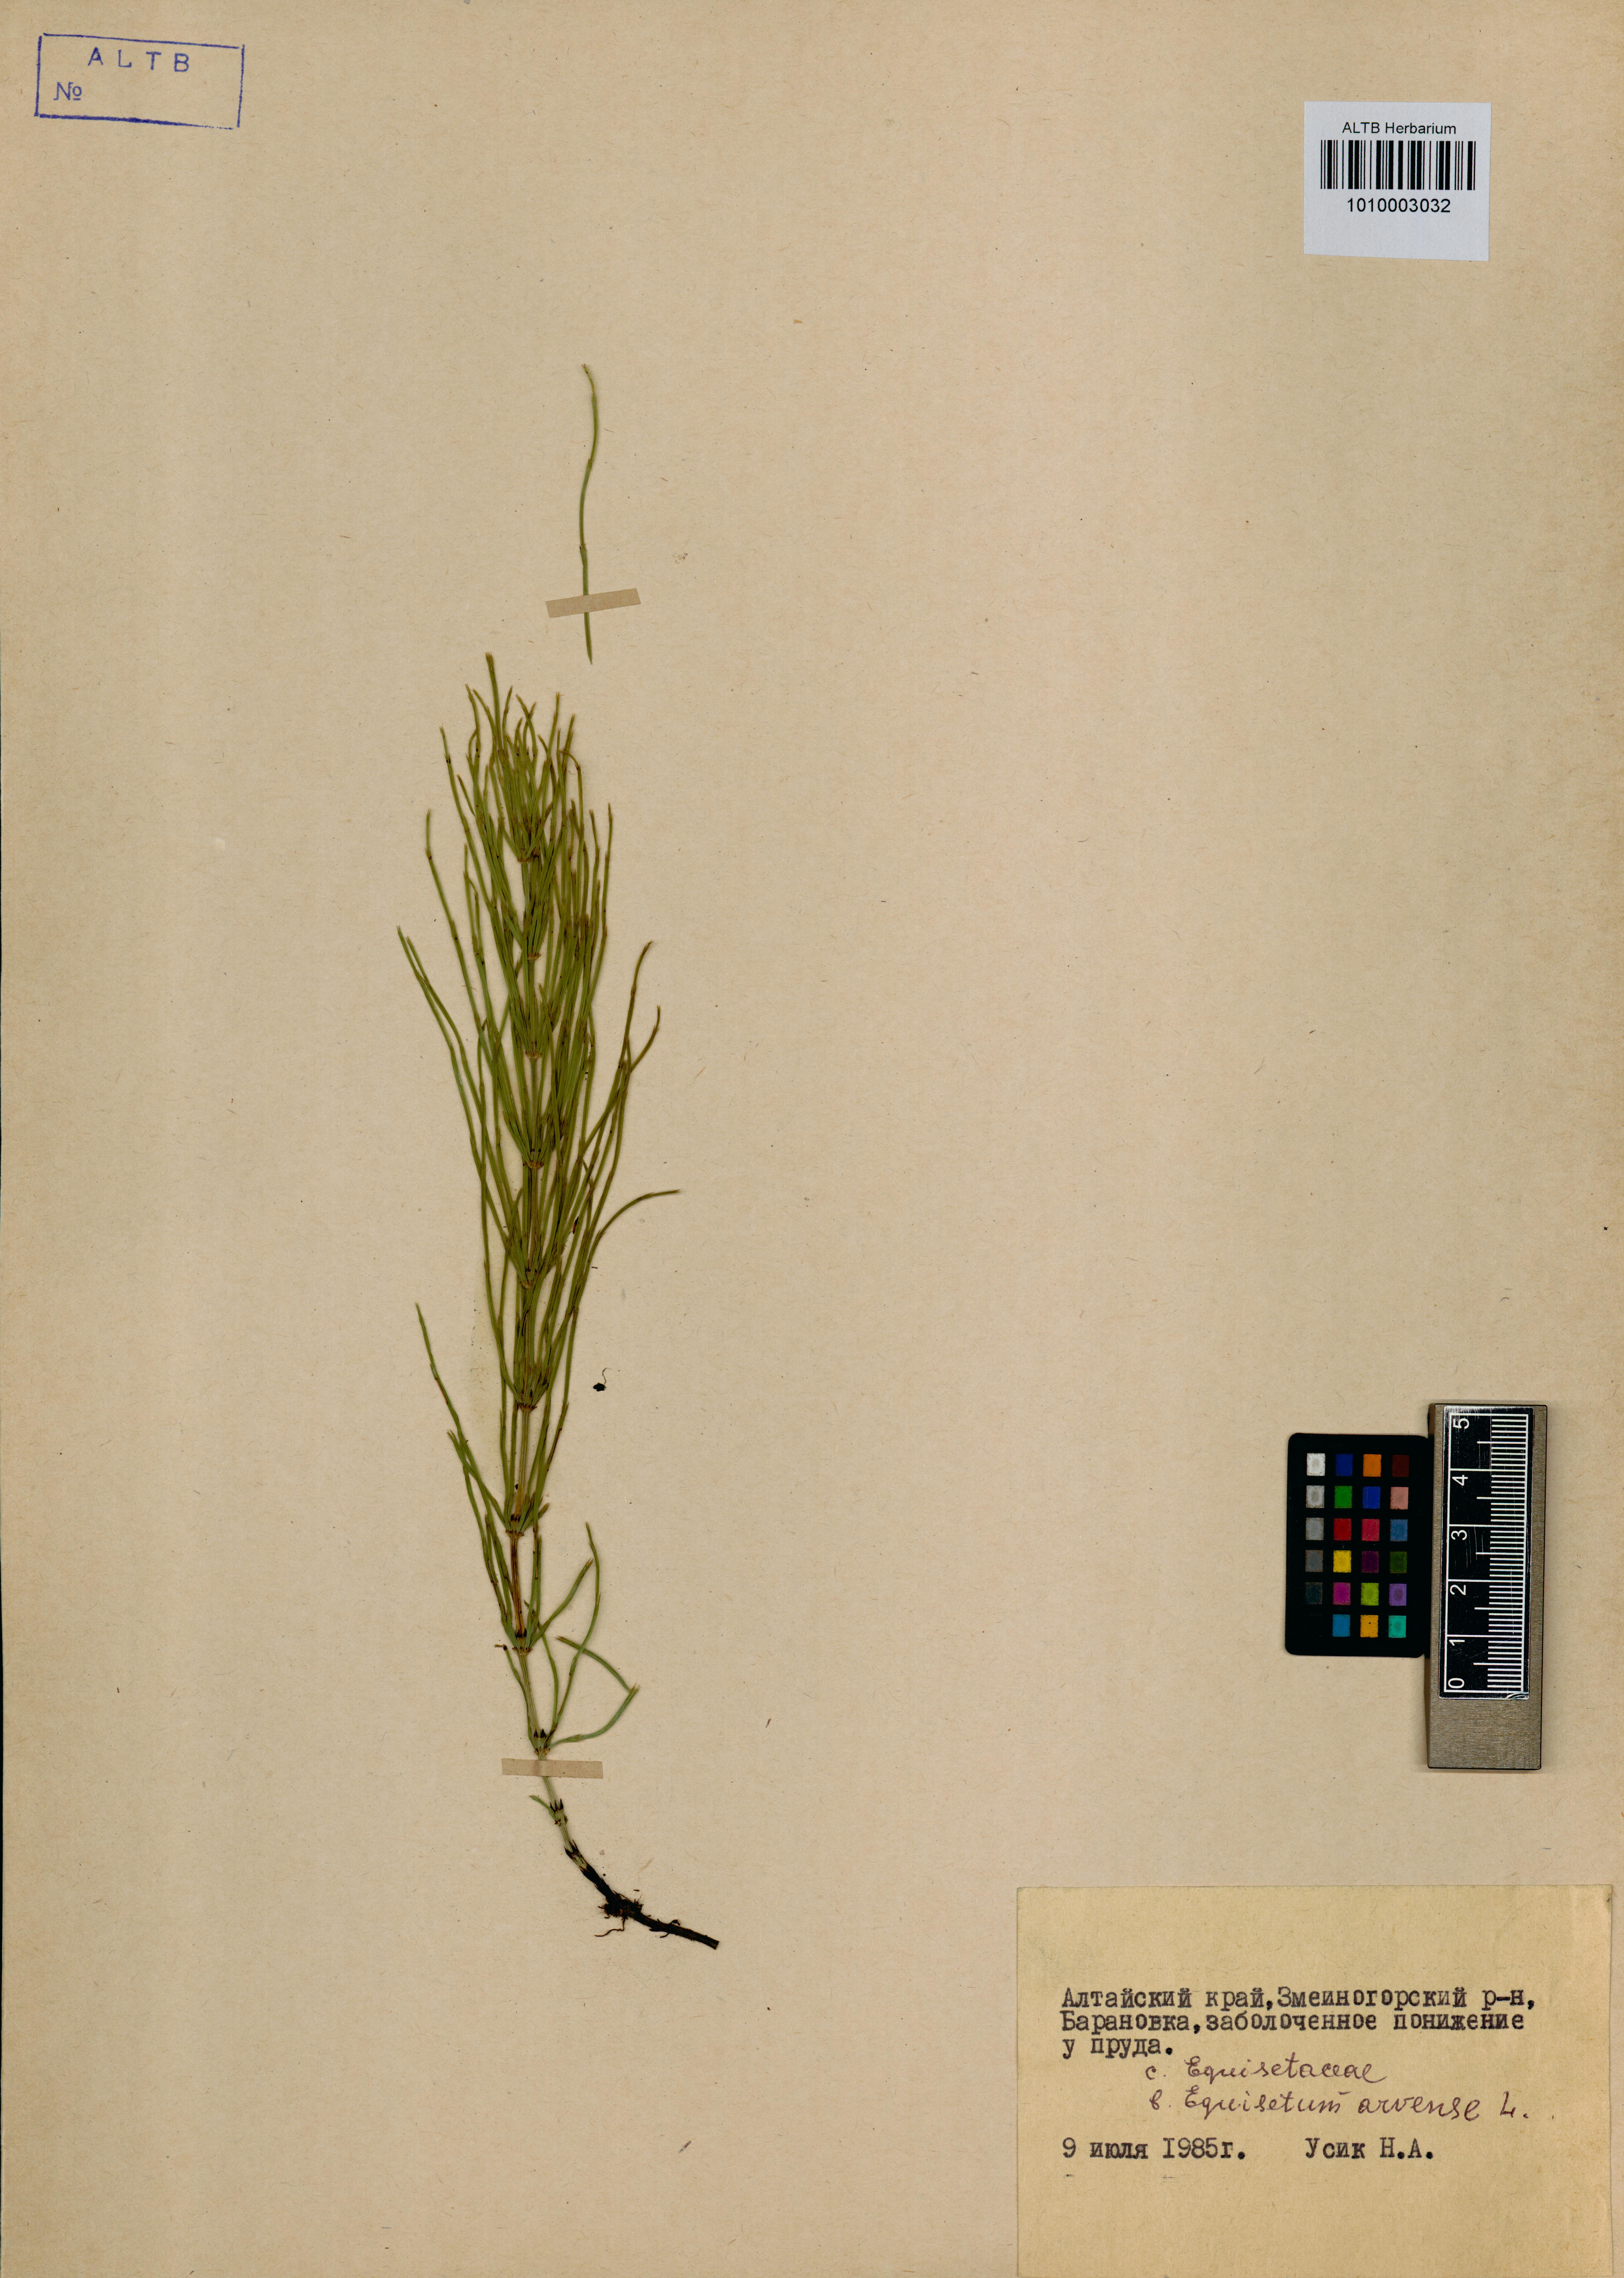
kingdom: Plantae
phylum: Tracheophyta
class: Polypodiopsida
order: Equisetales
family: Equisetaceae
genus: Equisetum
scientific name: Equisetum arvense
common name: Field horsetail
